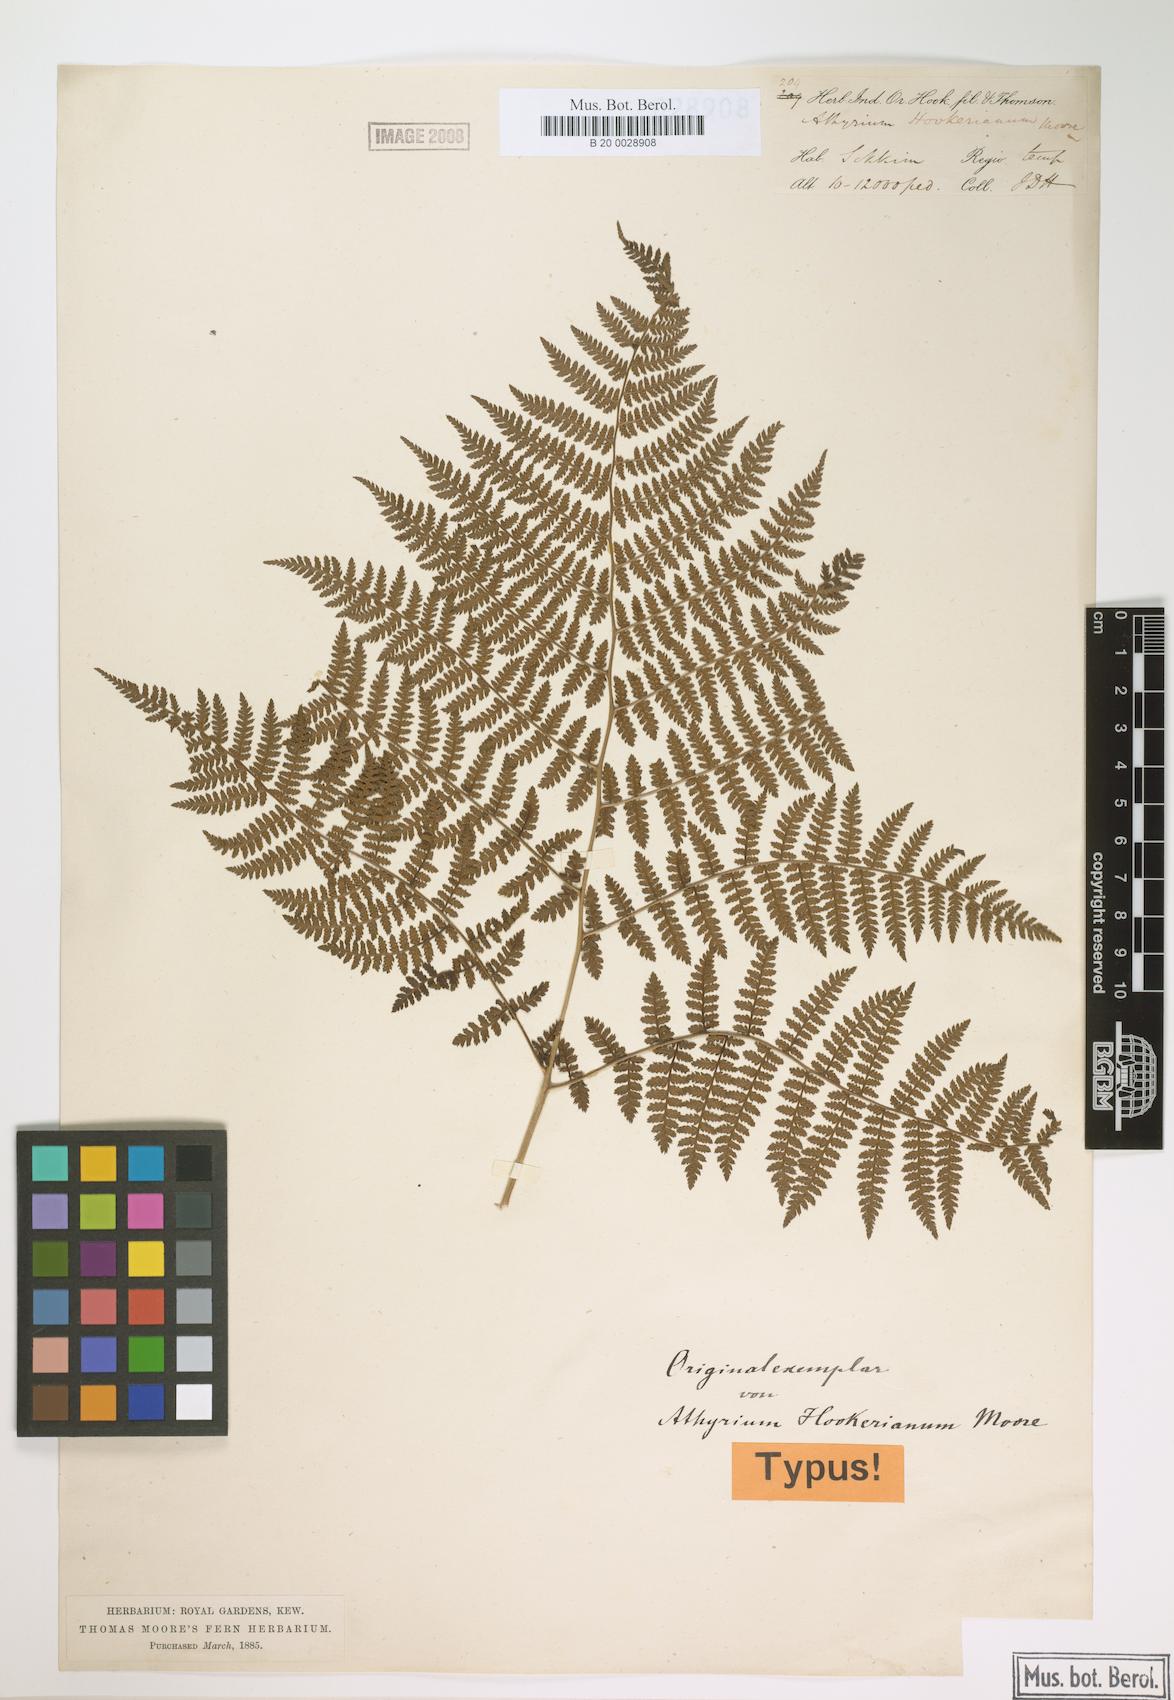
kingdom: Plantae
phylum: Tracheophyta
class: Polypodiopsida
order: Polypodiales
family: Athyriaceae
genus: Athyrium
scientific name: Athyrium spinulosum
